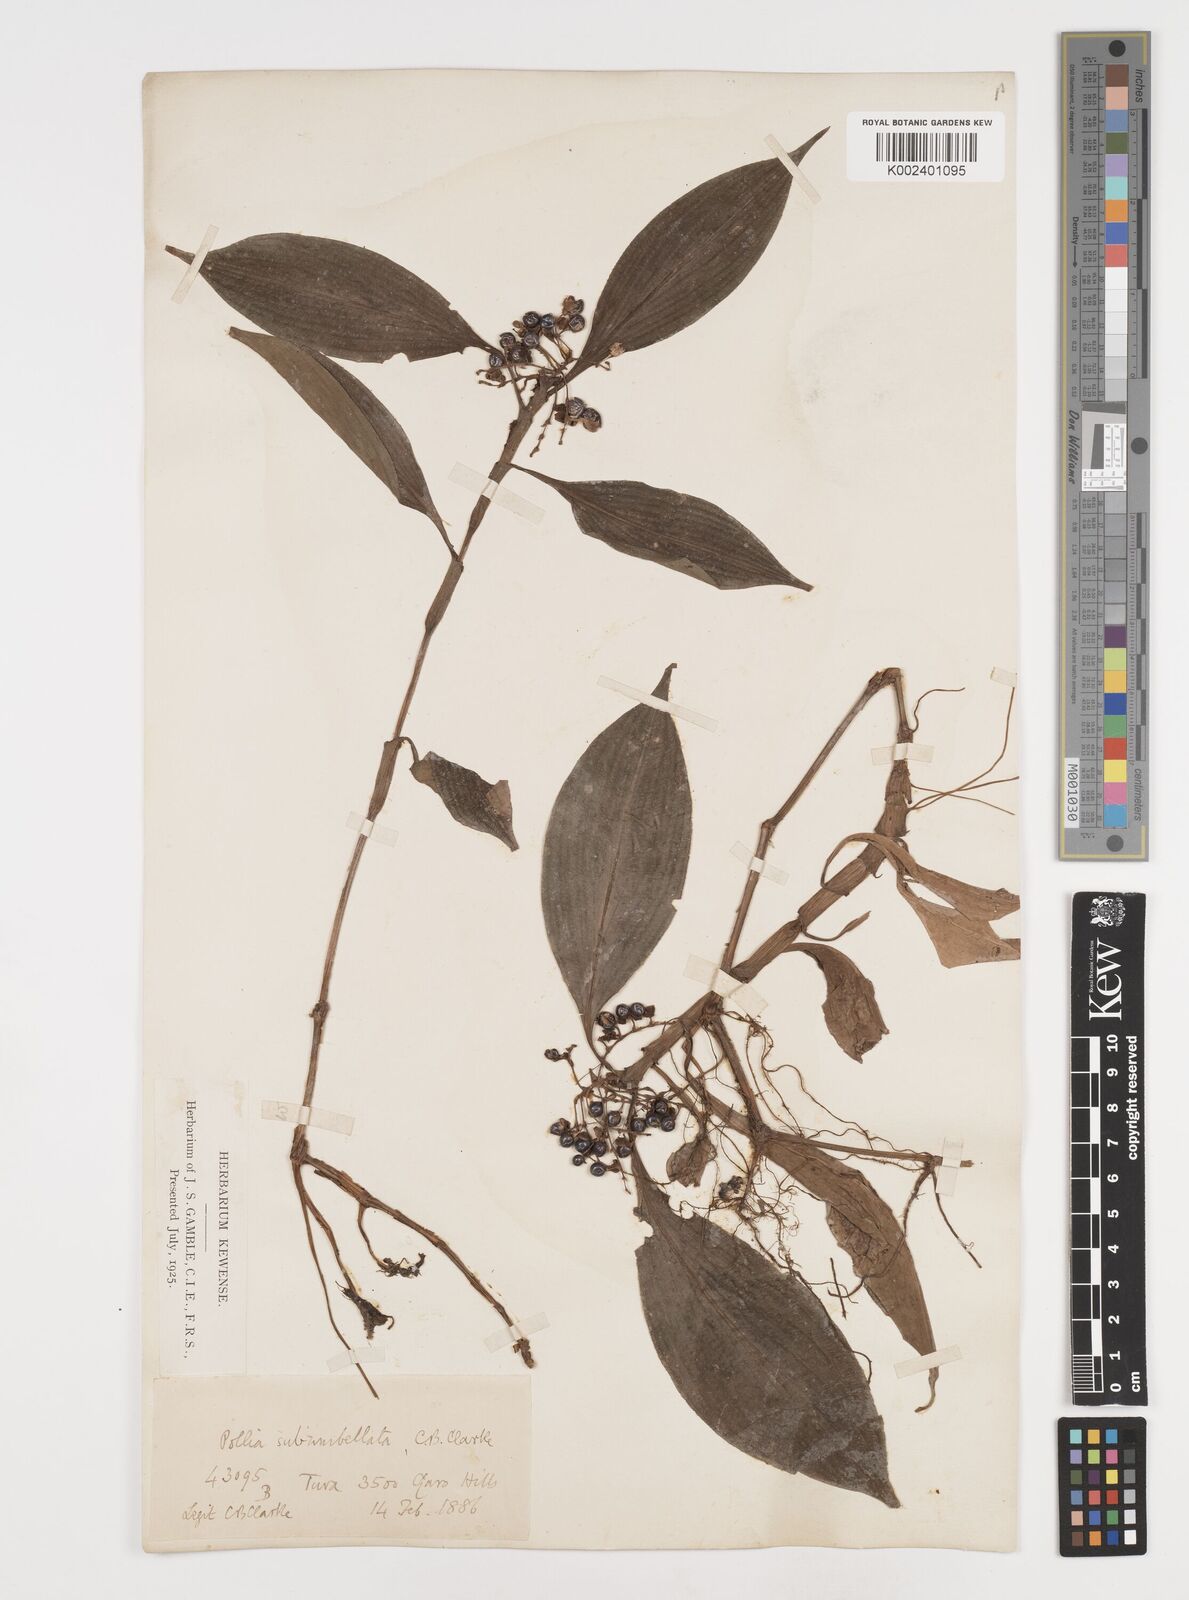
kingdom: Plantae
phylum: Tracheophyta
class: Liliopsida
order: Commelinales
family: Commelinaceae
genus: Pollia
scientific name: Pollia subumbellata
